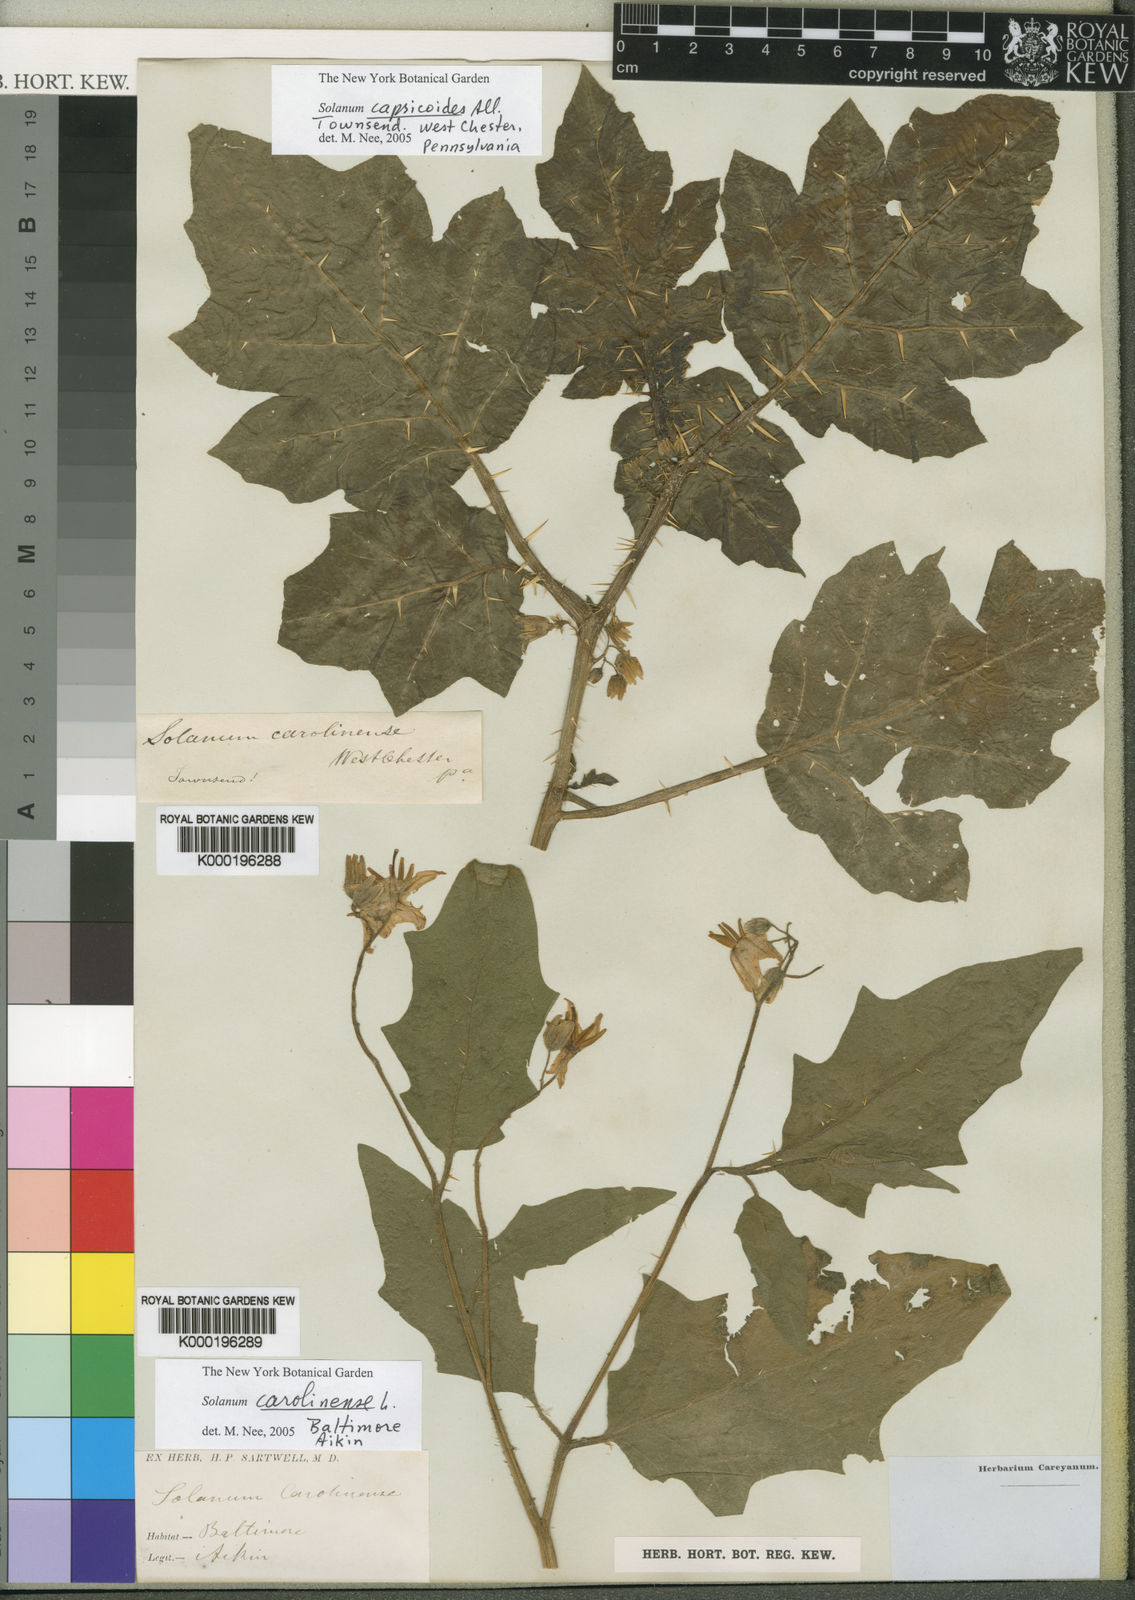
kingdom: Plantae
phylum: Tracheophyta
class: Magnoliopsida
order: Solanales
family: Solanaceae
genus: Solanum
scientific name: Solanum carolinense
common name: Horse-nettle
